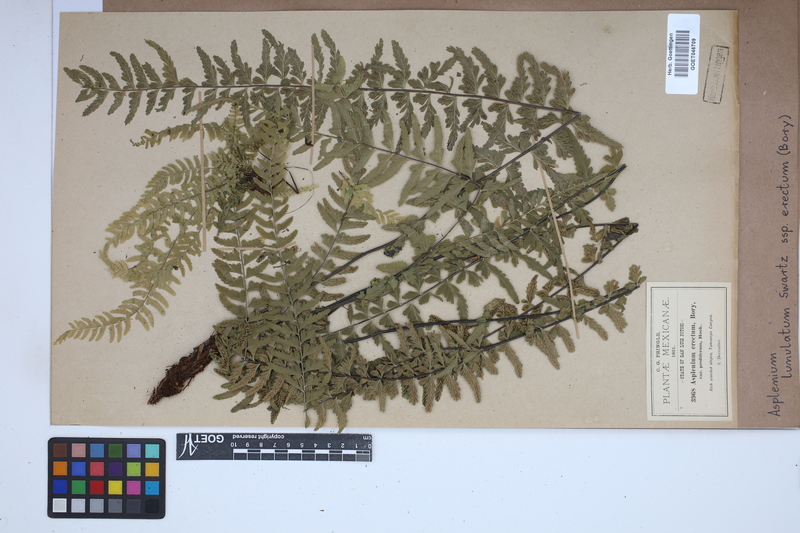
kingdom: Plantae
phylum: Tracheophyta
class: Polypodiopsida
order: Polypodiales
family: Aspleniaceae
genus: Asplenium
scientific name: Asplenium erectum
